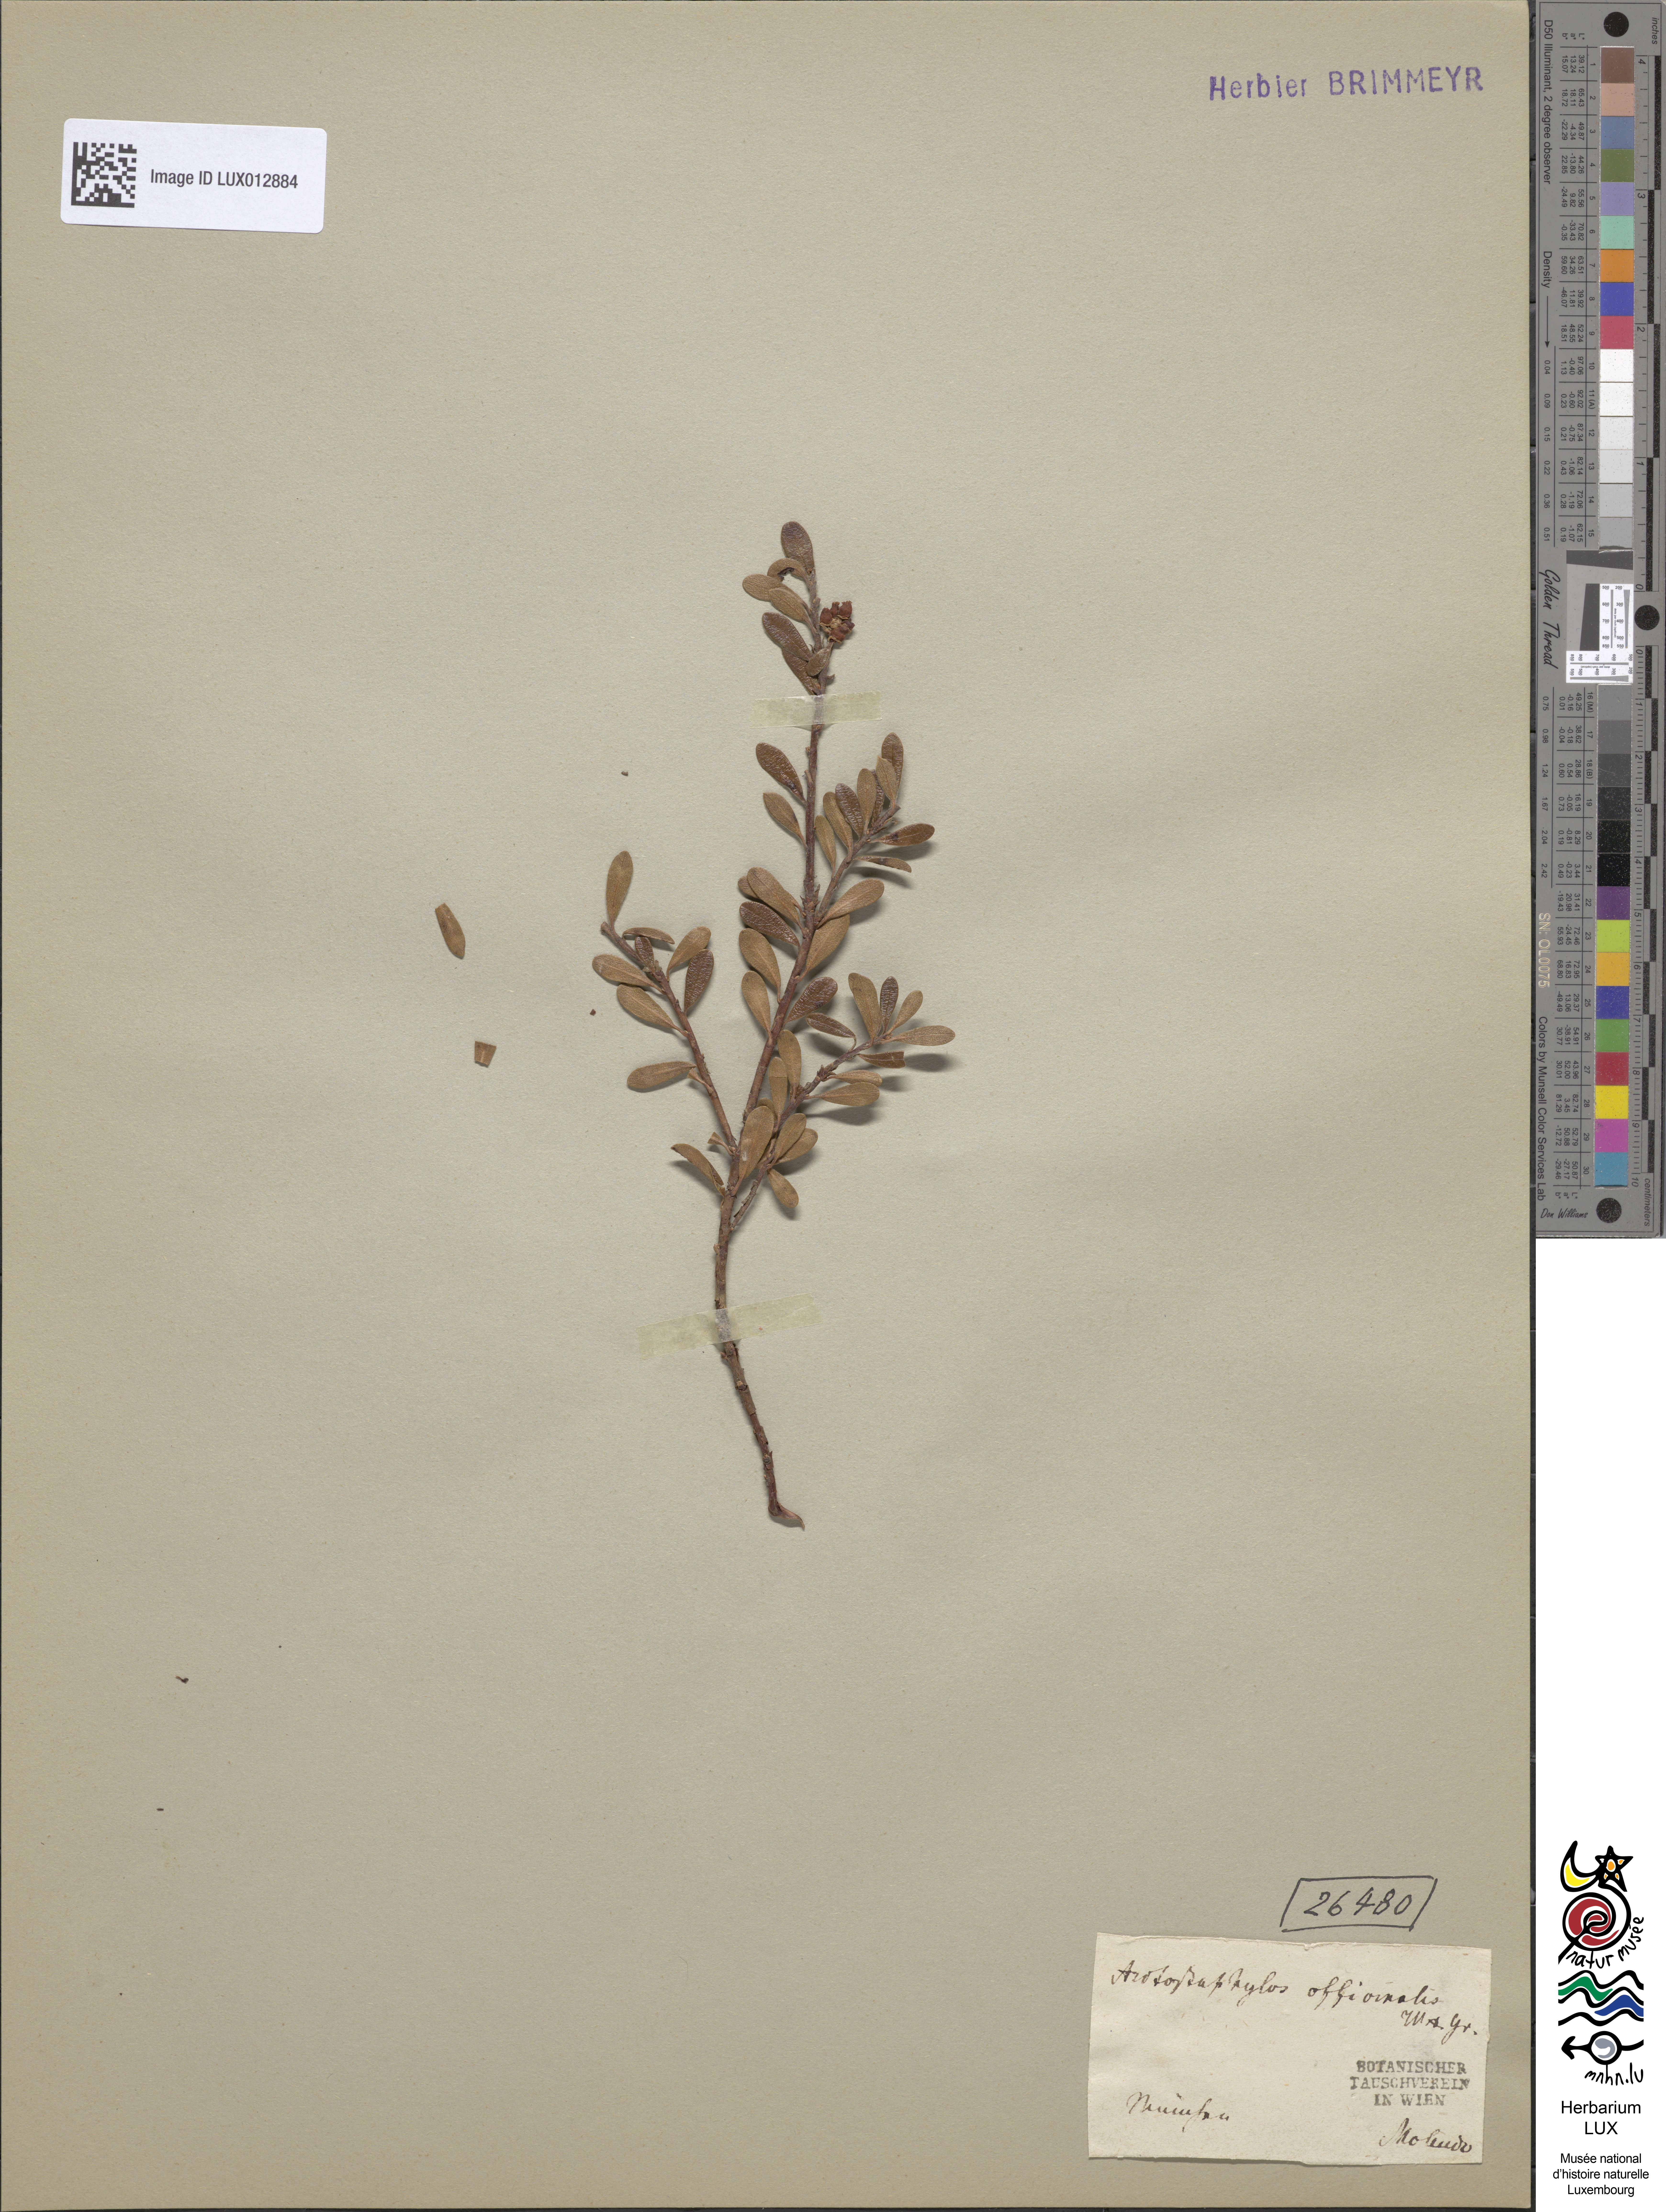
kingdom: Plantae
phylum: Tracheophyta
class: Magnoliopsida
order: Ericales
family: Ericaceae
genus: Arctostaphylos
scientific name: Arctostaphylos uva-ursi
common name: Bearberry
